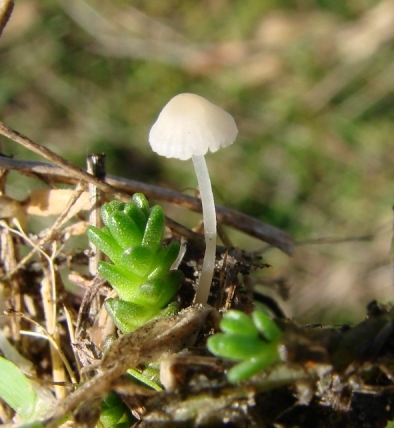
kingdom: Fungi
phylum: Basidiomycota
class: Agaricomycetes
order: Agaricales
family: Mycenaceae
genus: Atheniella
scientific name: Atheniella flavoalba
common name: gulhvid huesvamp
